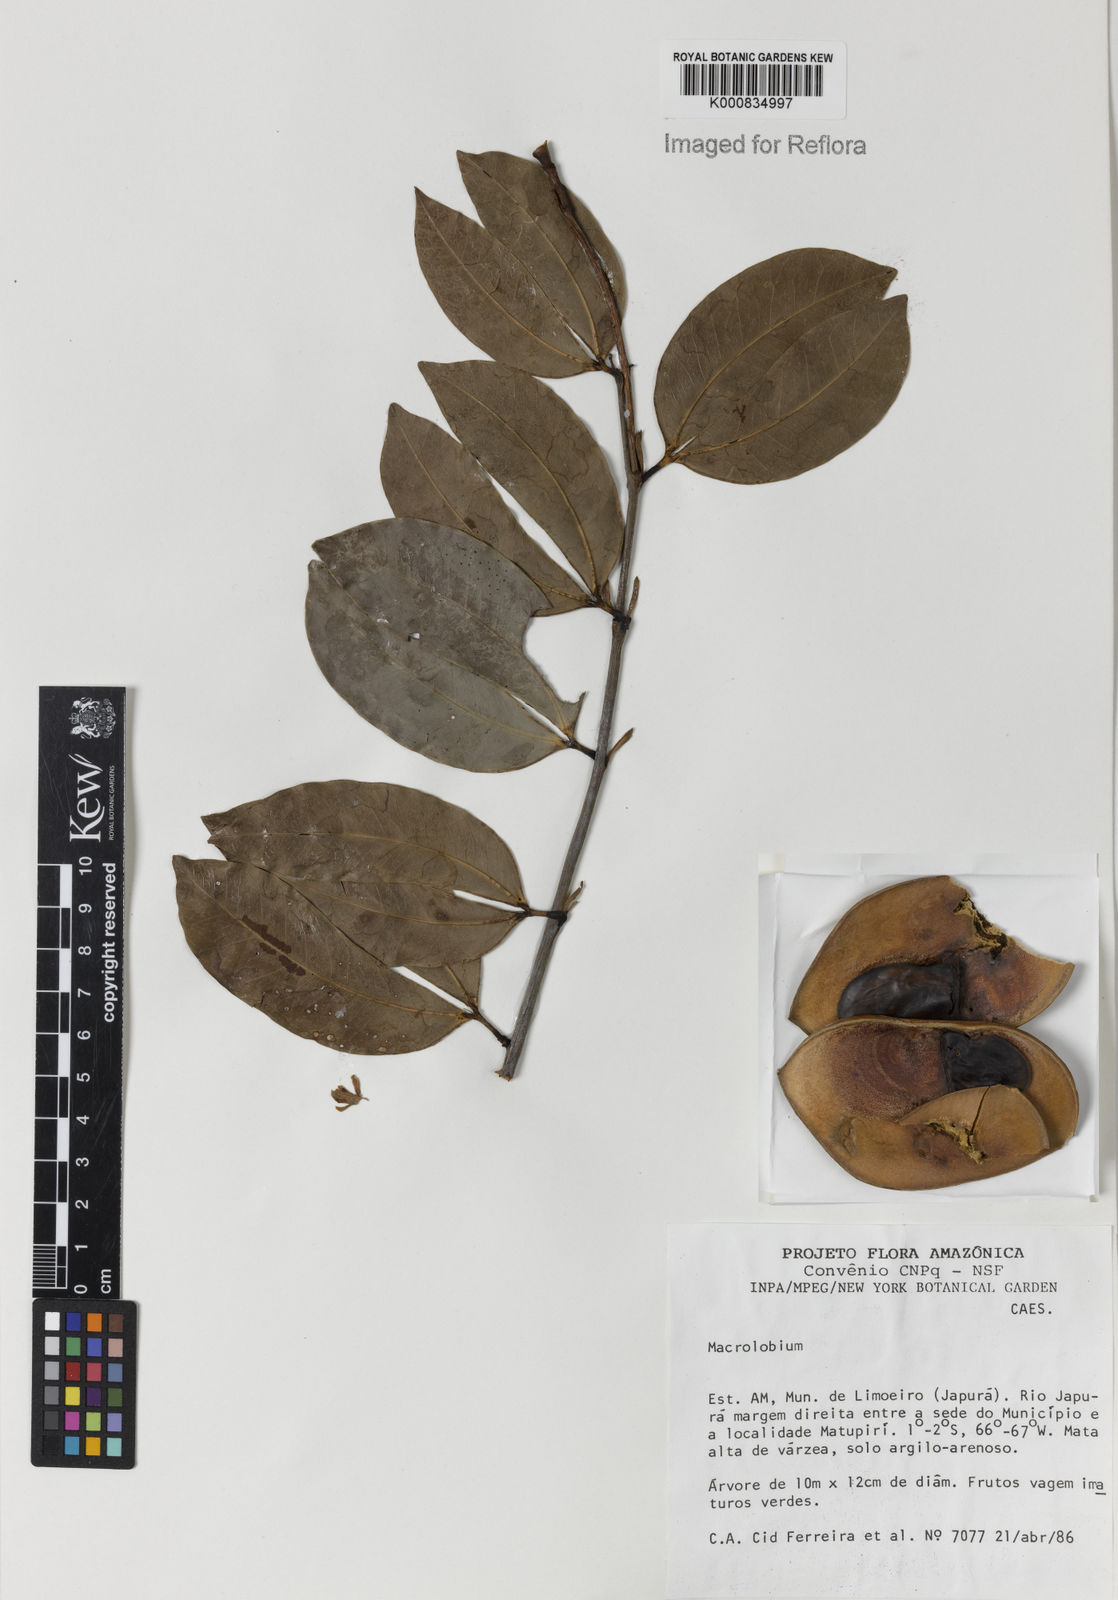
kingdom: Plantae
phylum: Tracheophyta
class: Magnoliopsida
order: Fabales
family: Fabaceae
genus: Macrolobium
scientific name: Macrolobium
